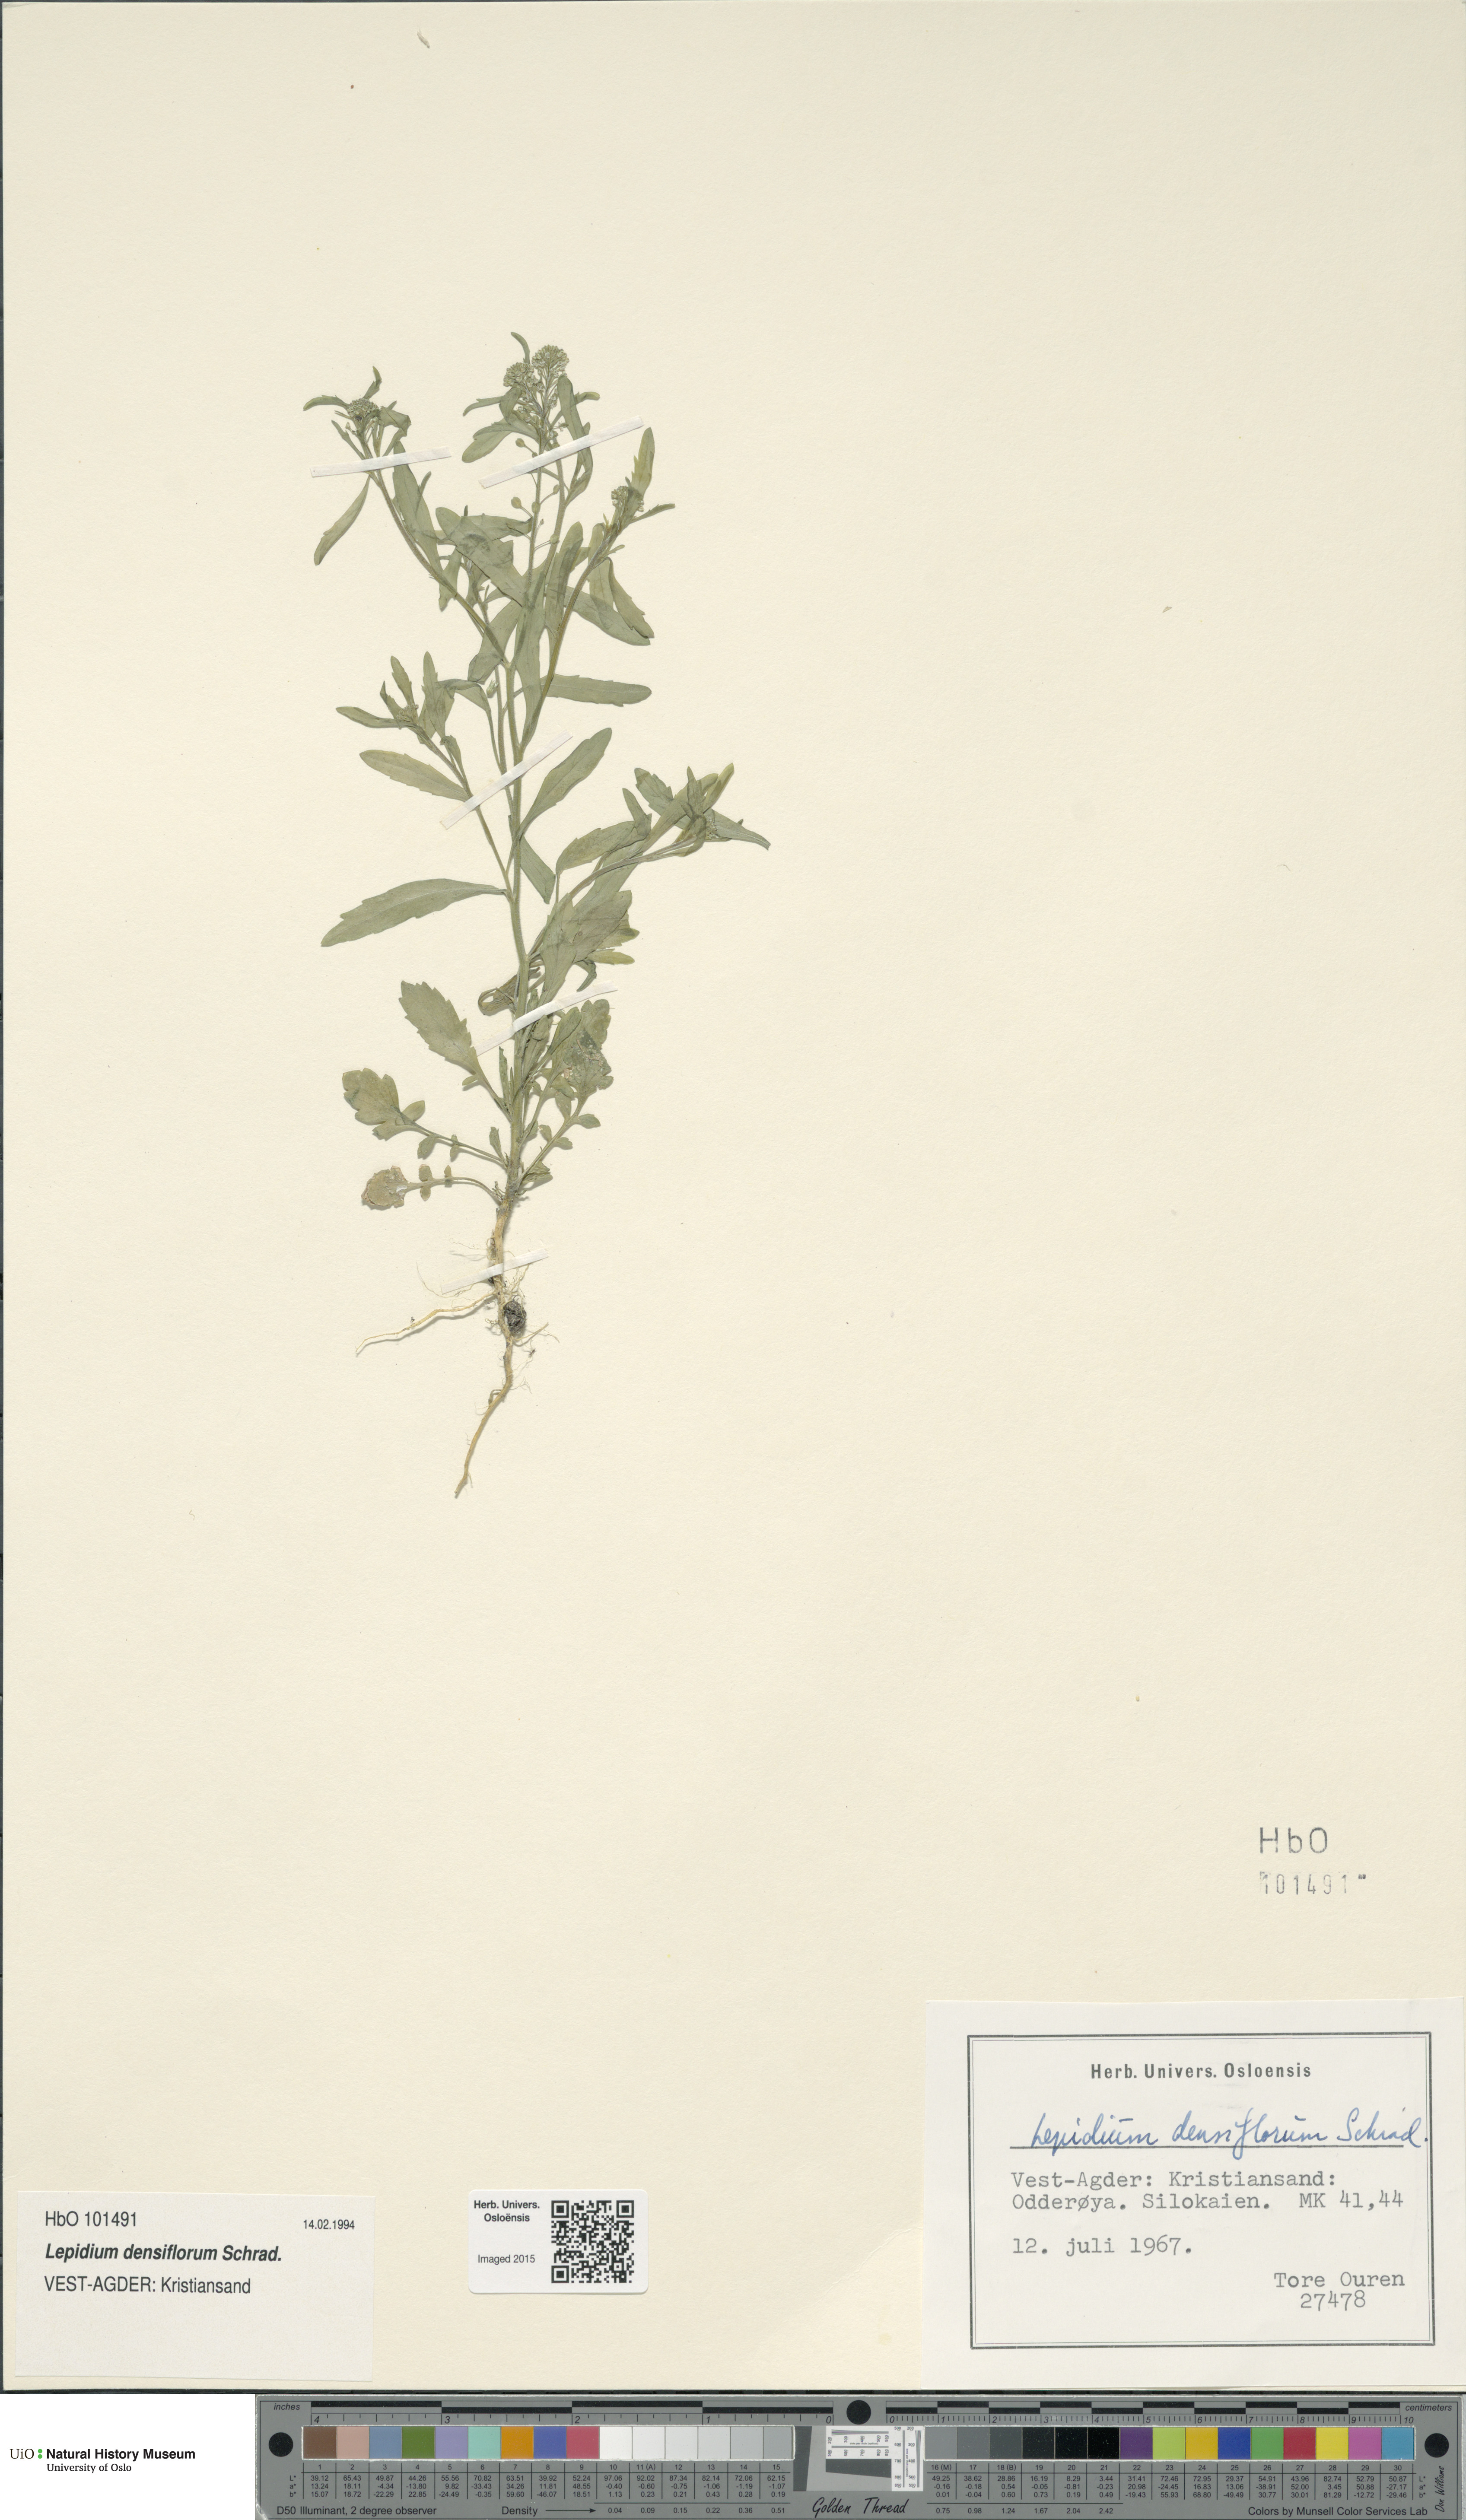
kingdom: Plantae
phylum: Tracheophyta
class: Magnoliopsida
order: Brassicales
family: Brassicaceae
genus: Lepidium
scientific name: Lepidium densiflorum
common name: Miner's pepperwort
